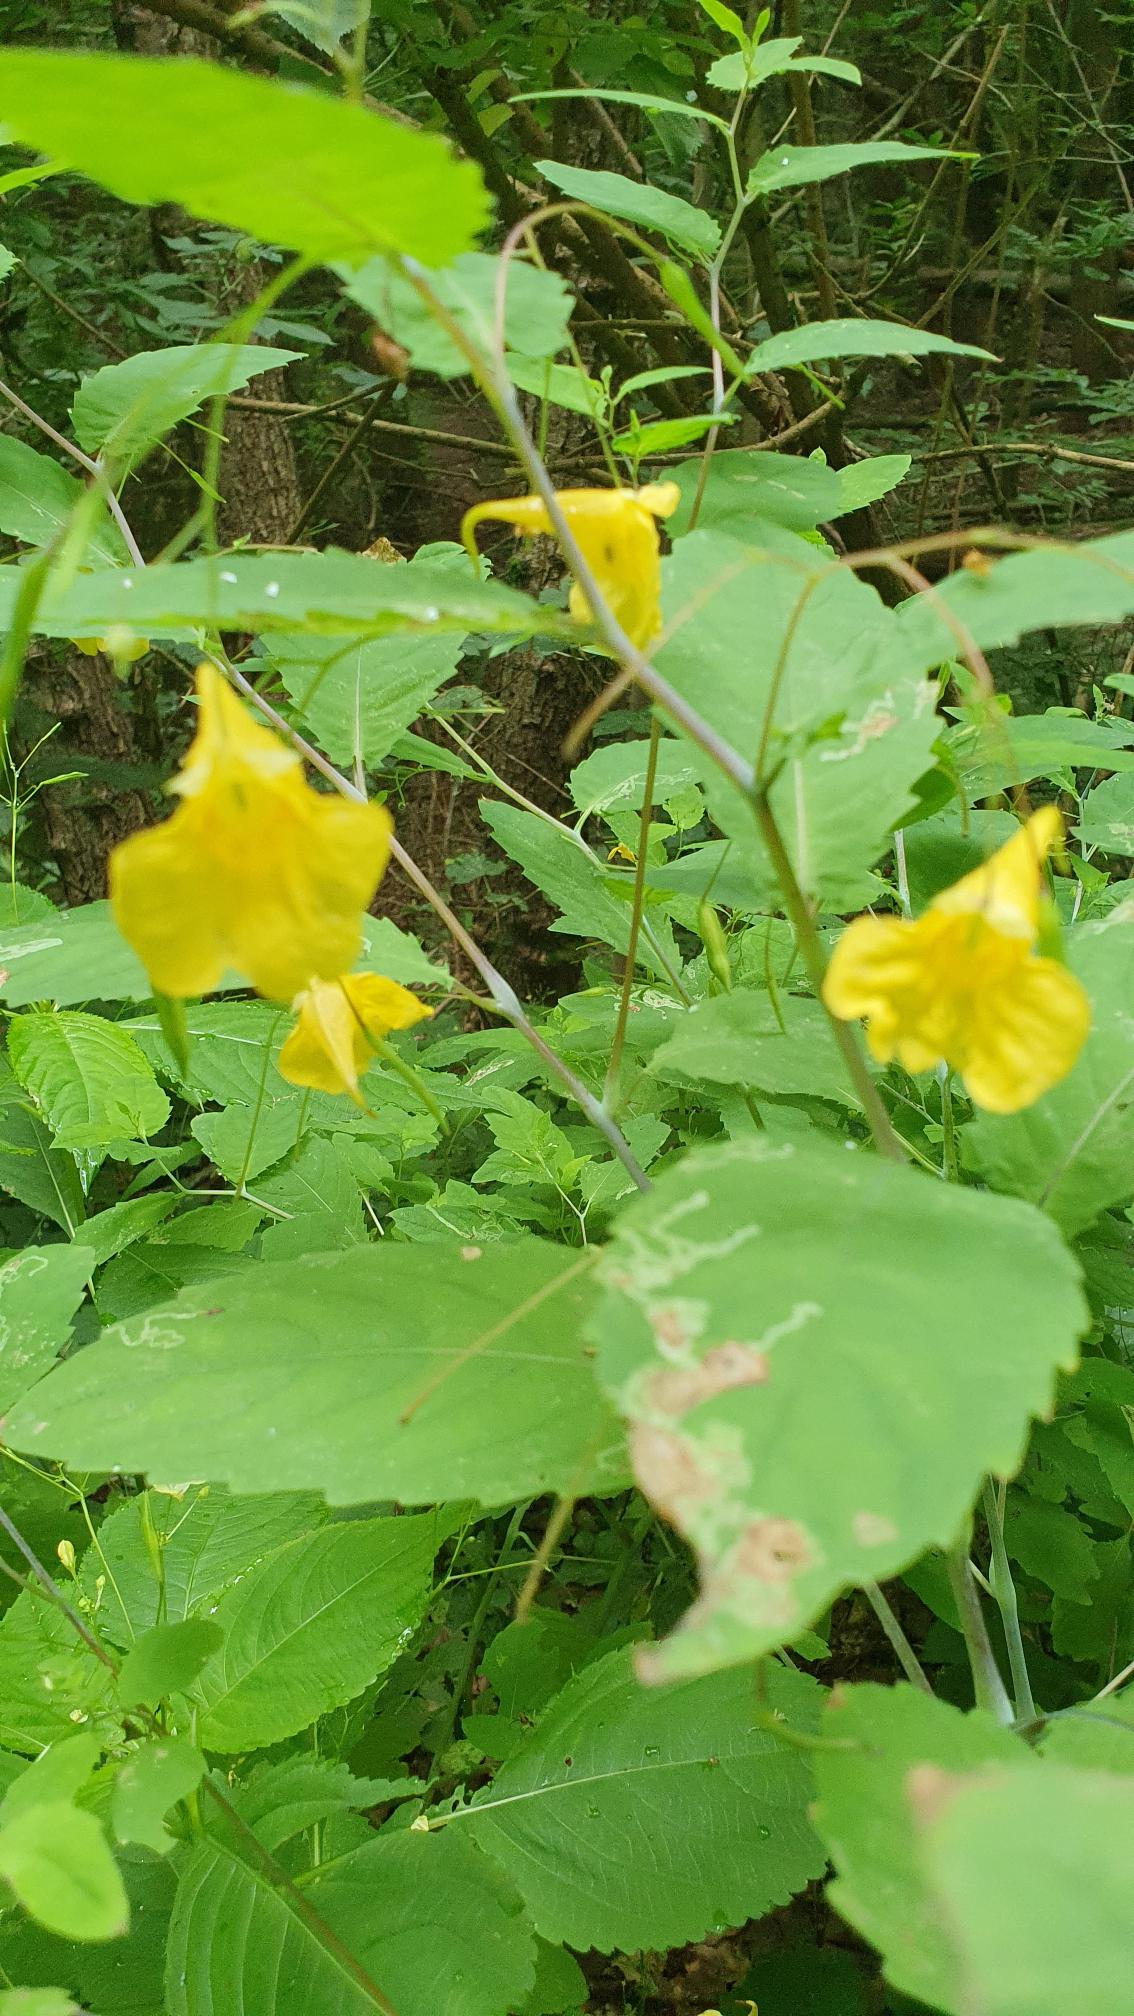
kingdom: Plantae
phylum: Tracheophyta
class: Magnoliopsida
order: Ericales
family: Balsaminaceae
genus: Impatiens
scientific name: Impatiens noli-tangere
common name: Spring-balsamin
